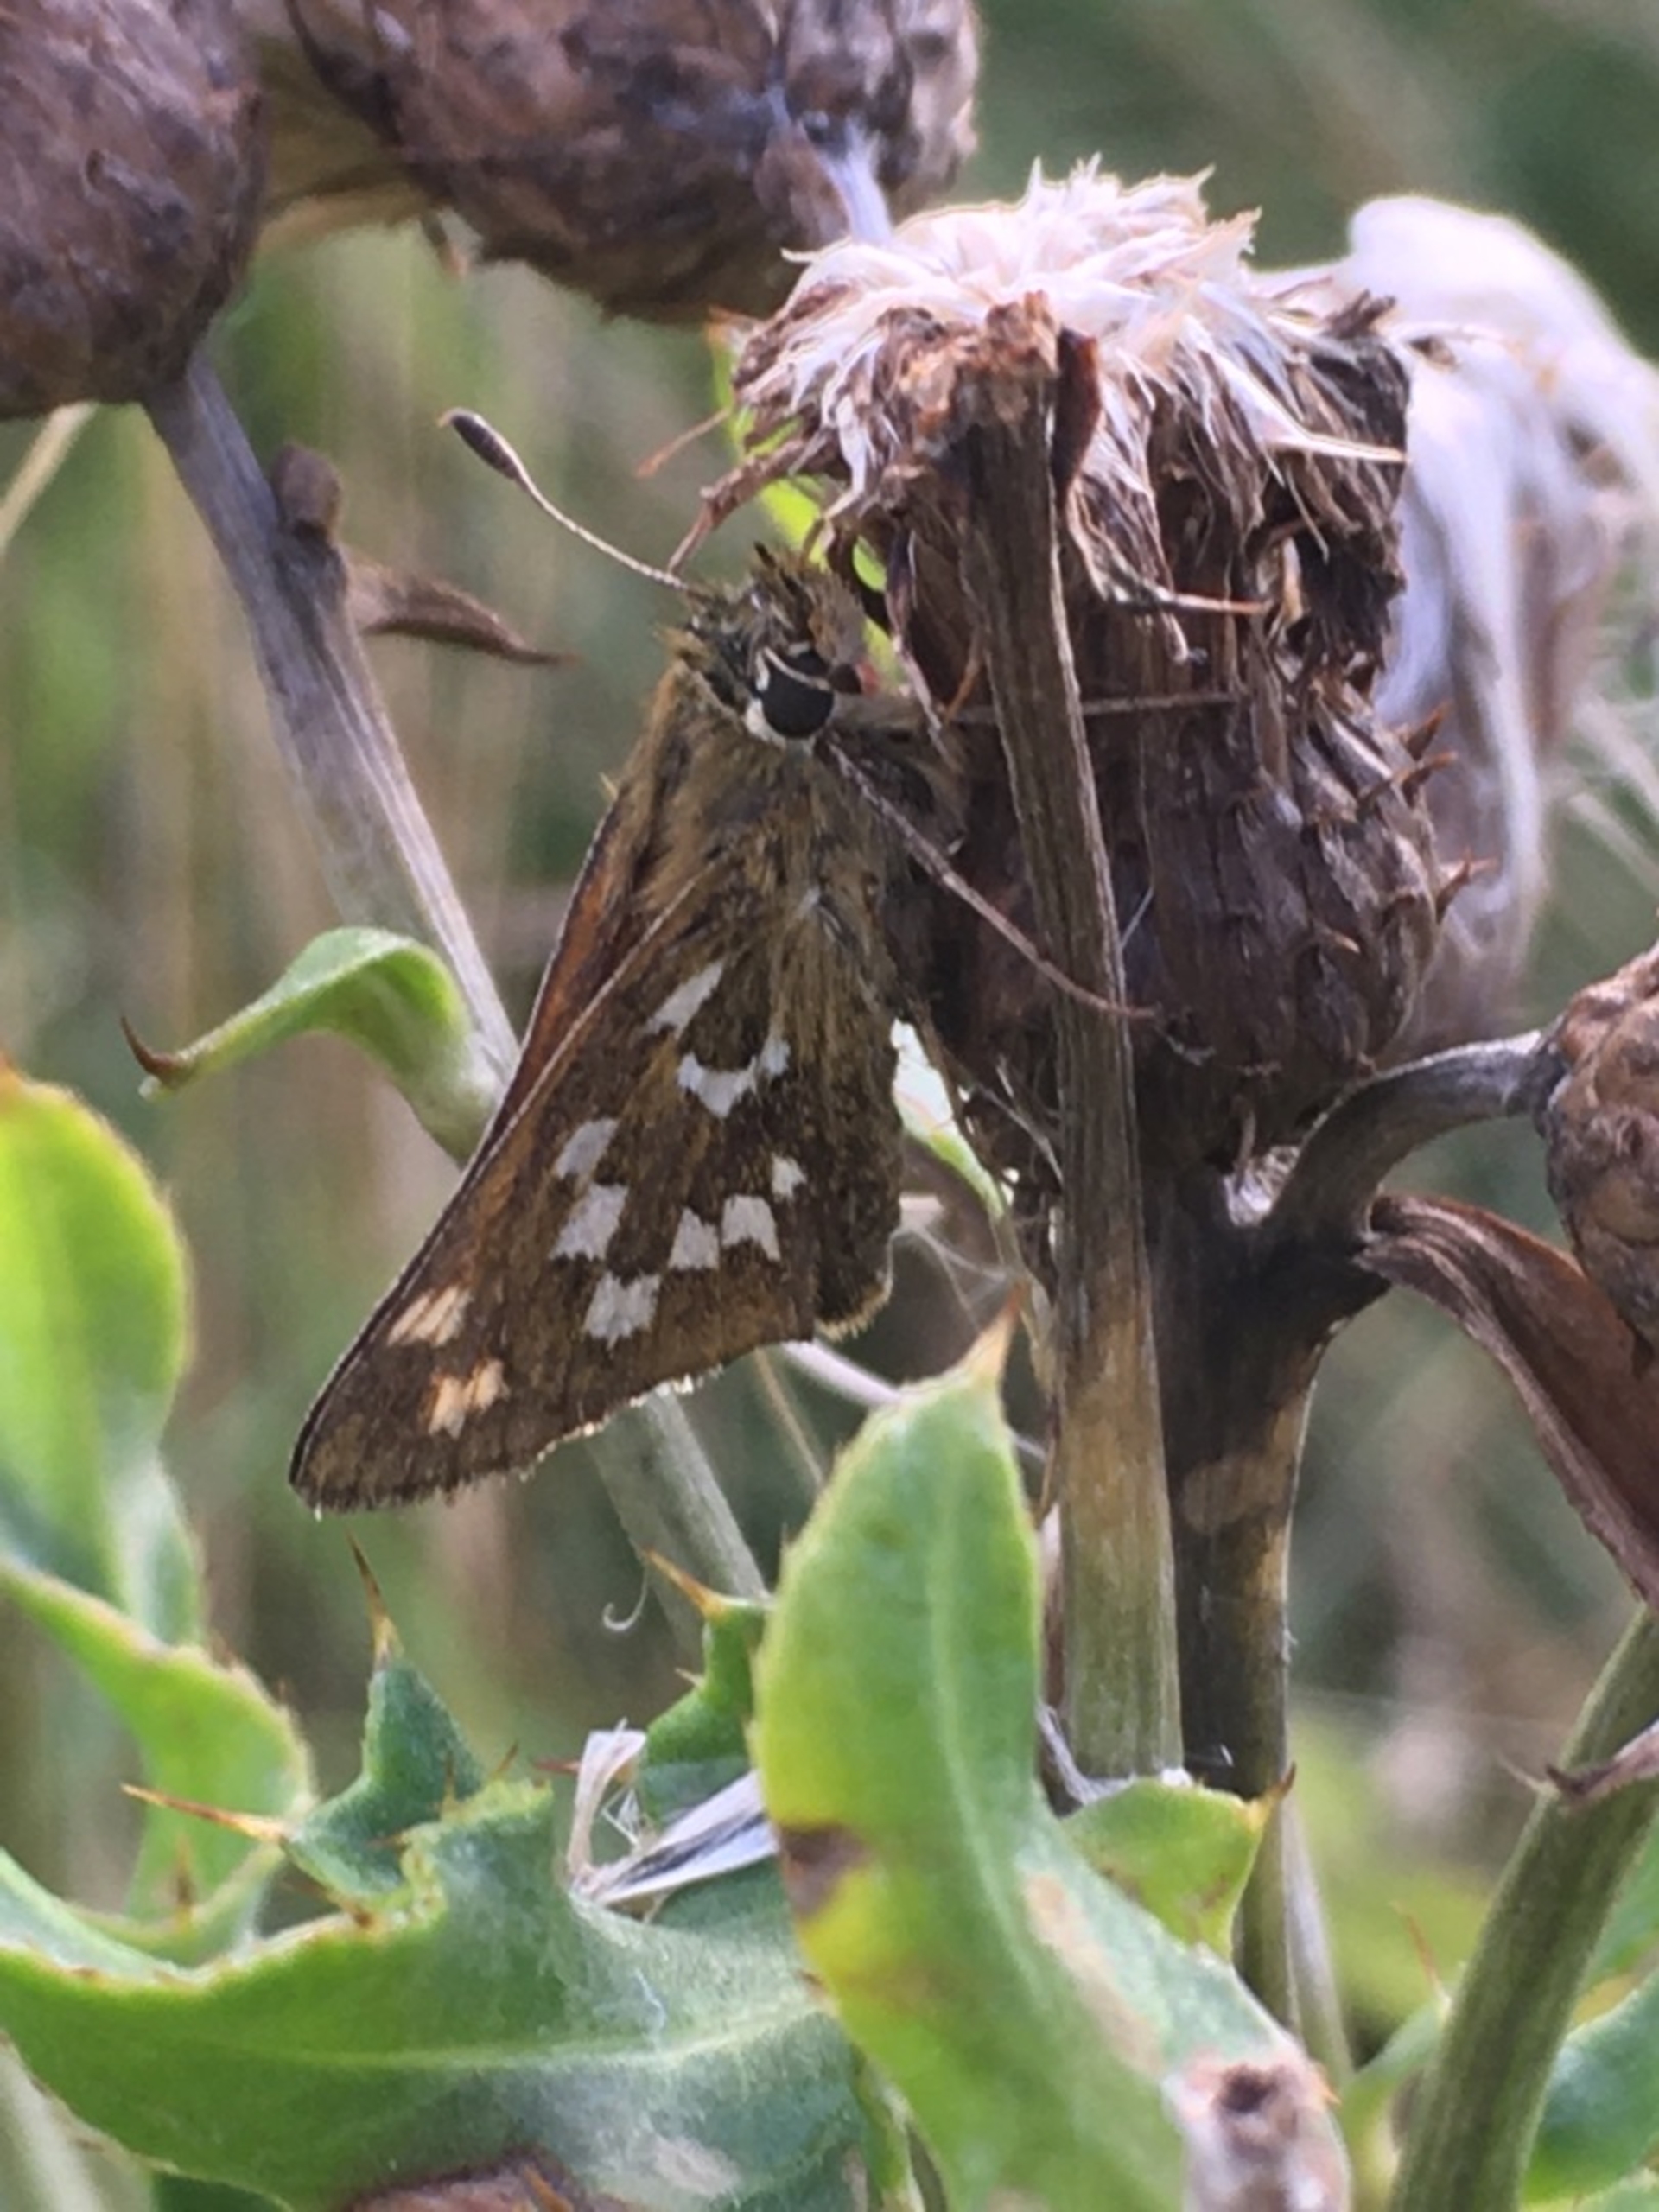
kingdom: Animalia
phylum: Arthropoda
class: Insecta
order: Lepidoptera
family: Hesperiidae
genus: Hesperia
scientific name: Hesperia comma
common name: Kommabredpande
